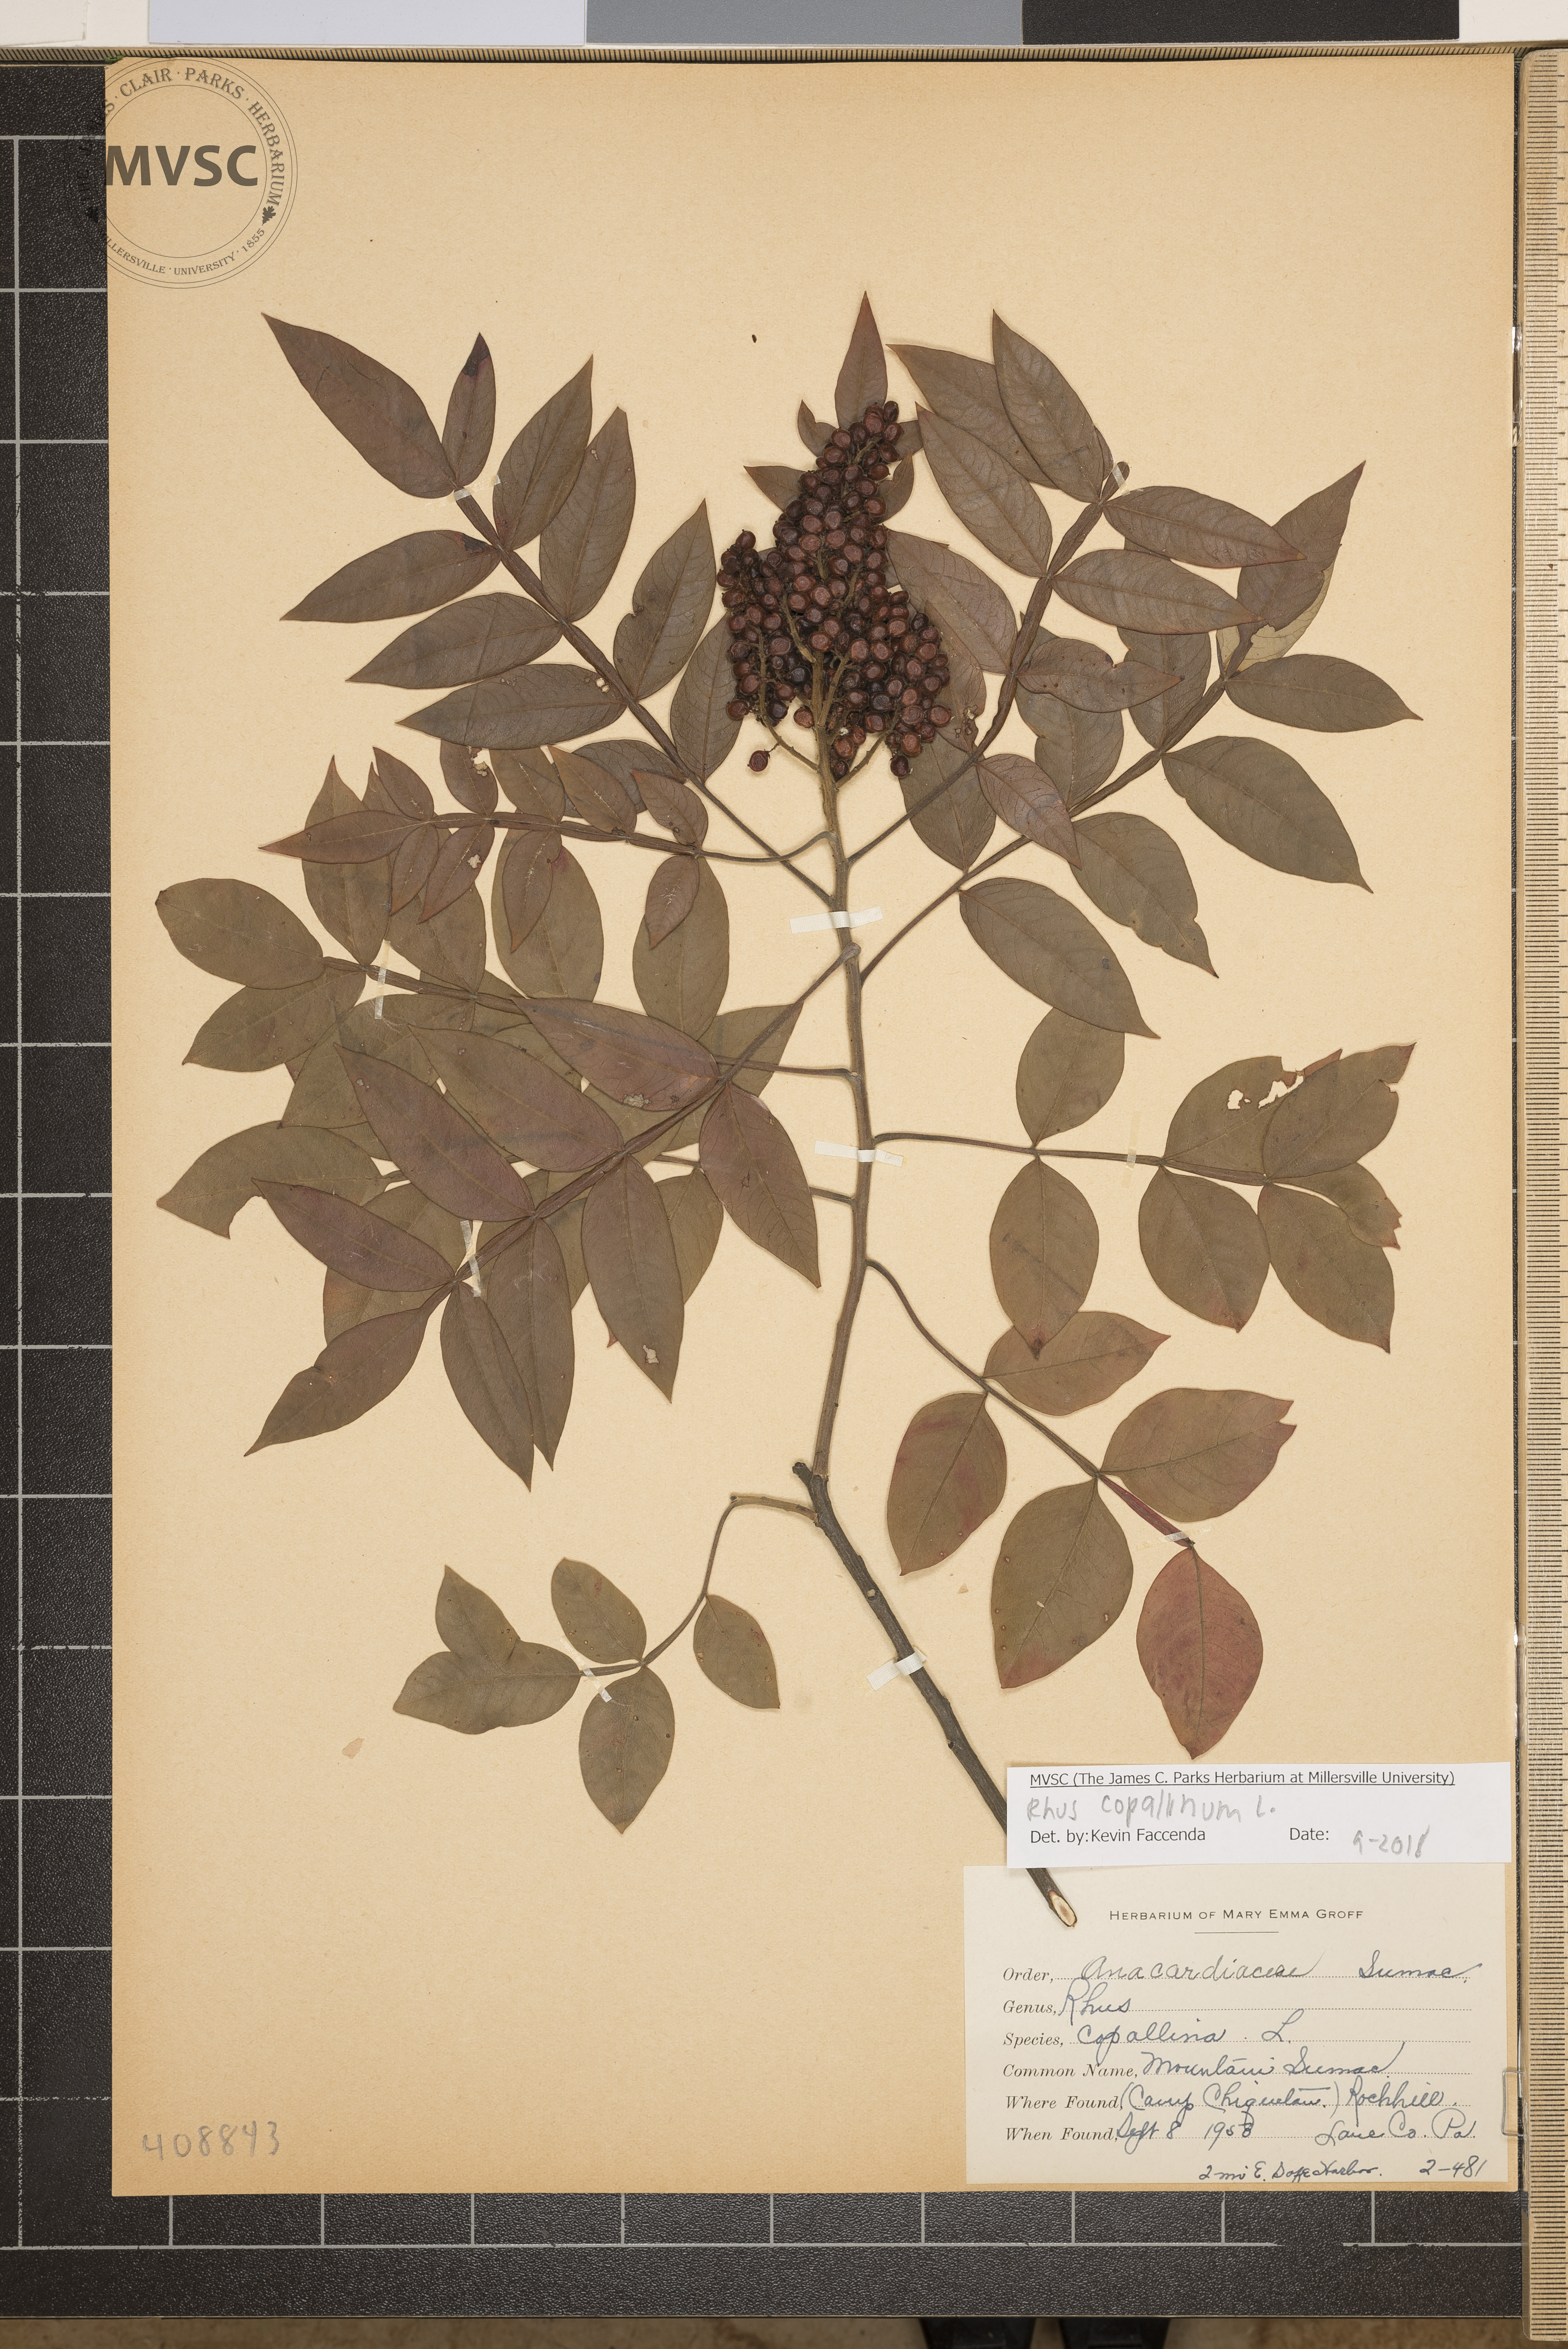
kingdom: Plantae
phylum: Tracheophyta
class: Magnoliopsida
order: Sapindales
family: Anacardiaceae
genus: Rhus
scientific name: Rhus copallina
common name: Mountain Sumac
